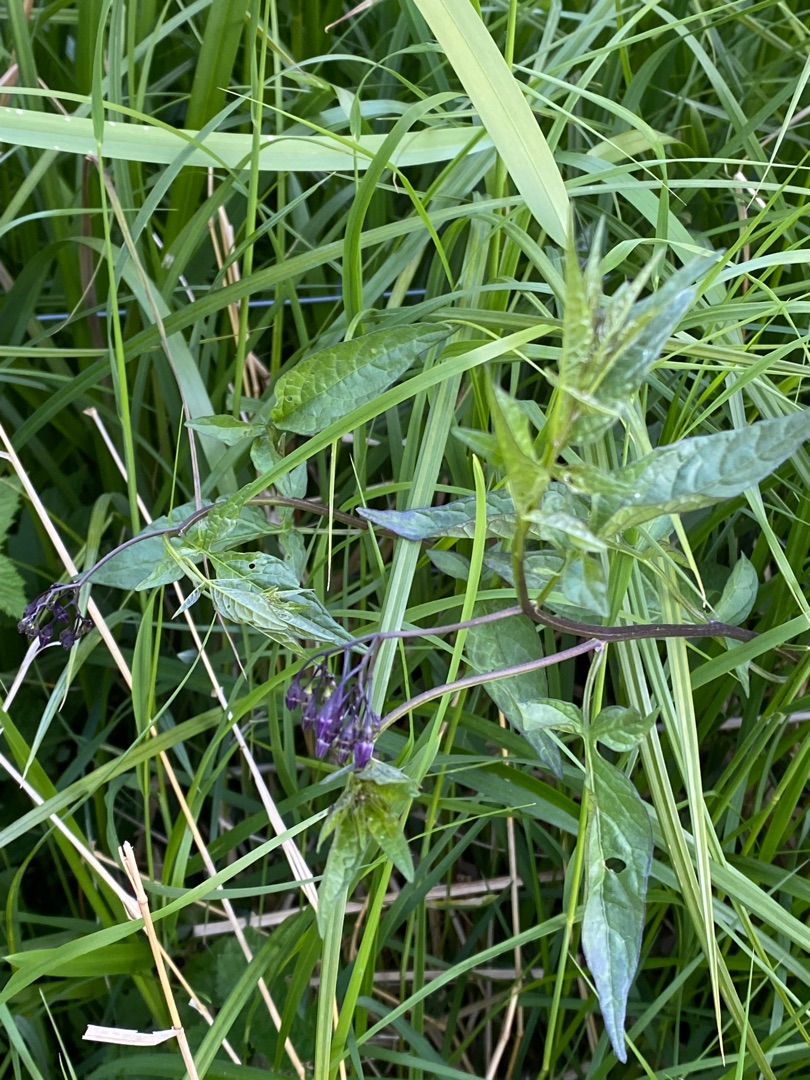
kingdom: Plantae
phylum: Tracheophyta
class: Magnoliopsida
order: Solanales
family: Solanaceae
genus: Solanum
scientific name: Solanum dulcamara
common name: Bittersød natskygge
